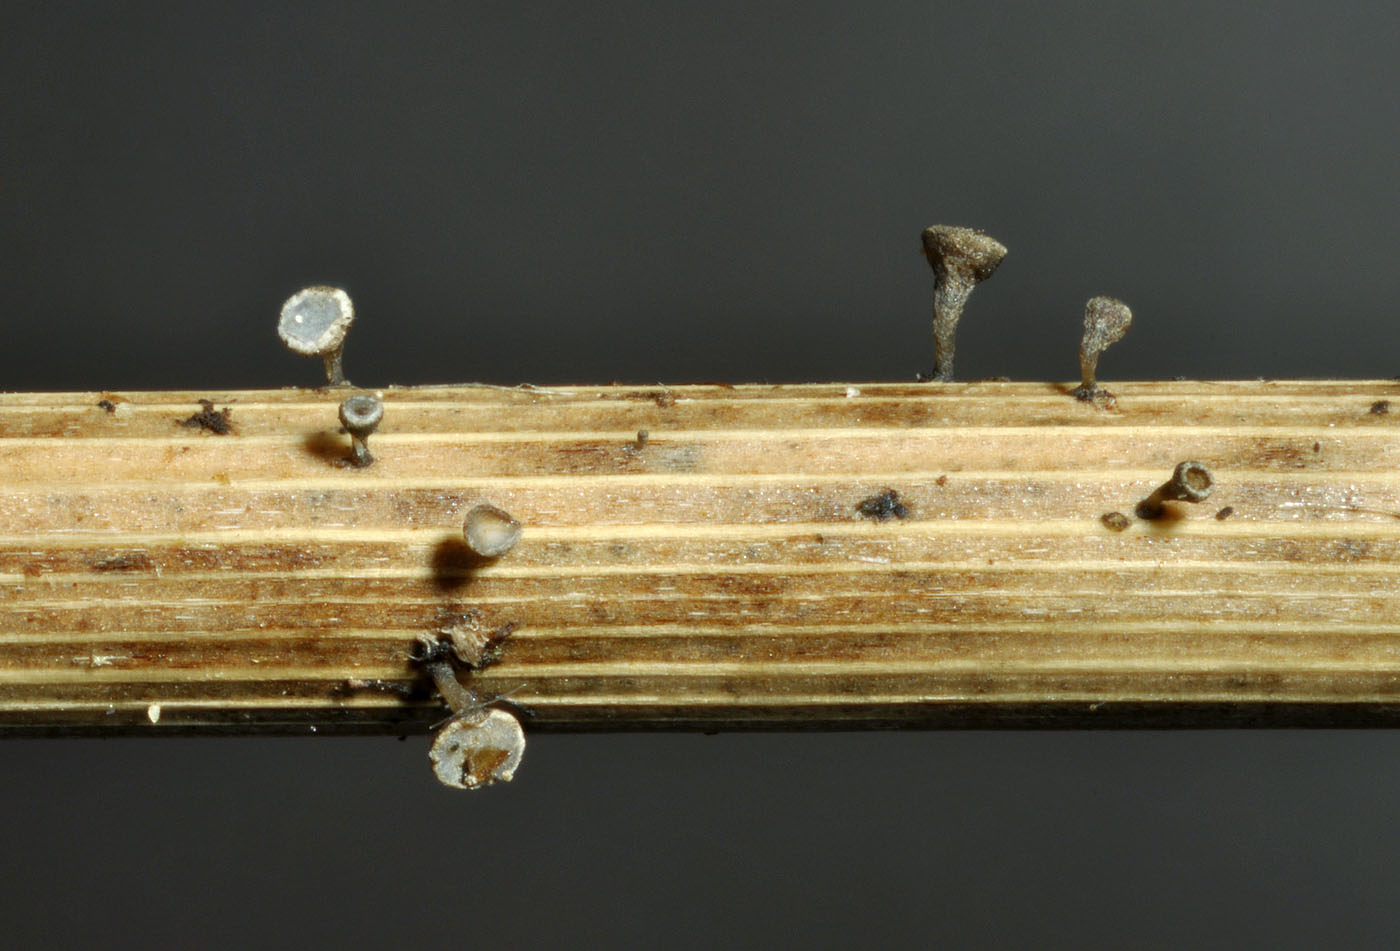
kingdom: Fungi
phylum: Ascomycota
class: Leotiomycetes
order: Helotiales
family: Helotiaceae
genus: Crocicreas
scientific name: Crocicreas furvum
